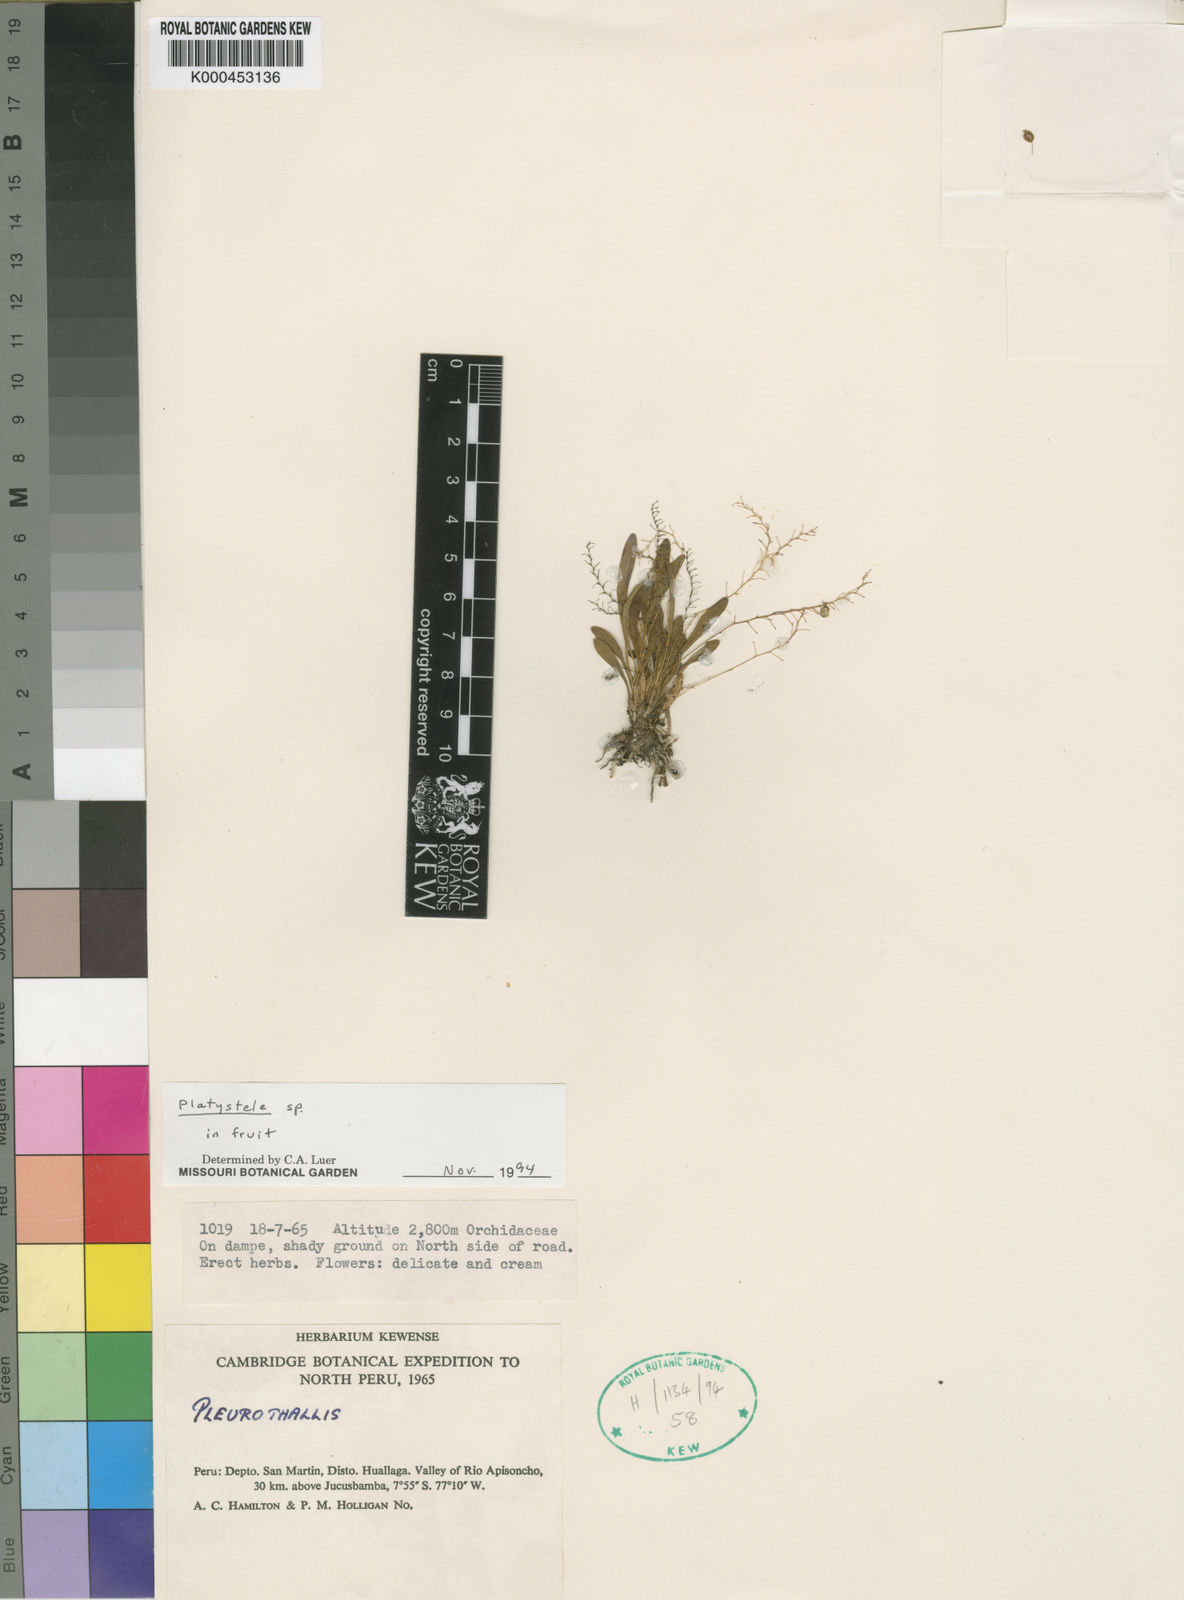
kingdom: Plantae
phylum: Tracheophyta
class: Liliopsida
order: Asparagales
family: Orchidaceae
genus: Platystele
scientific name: Platystele
